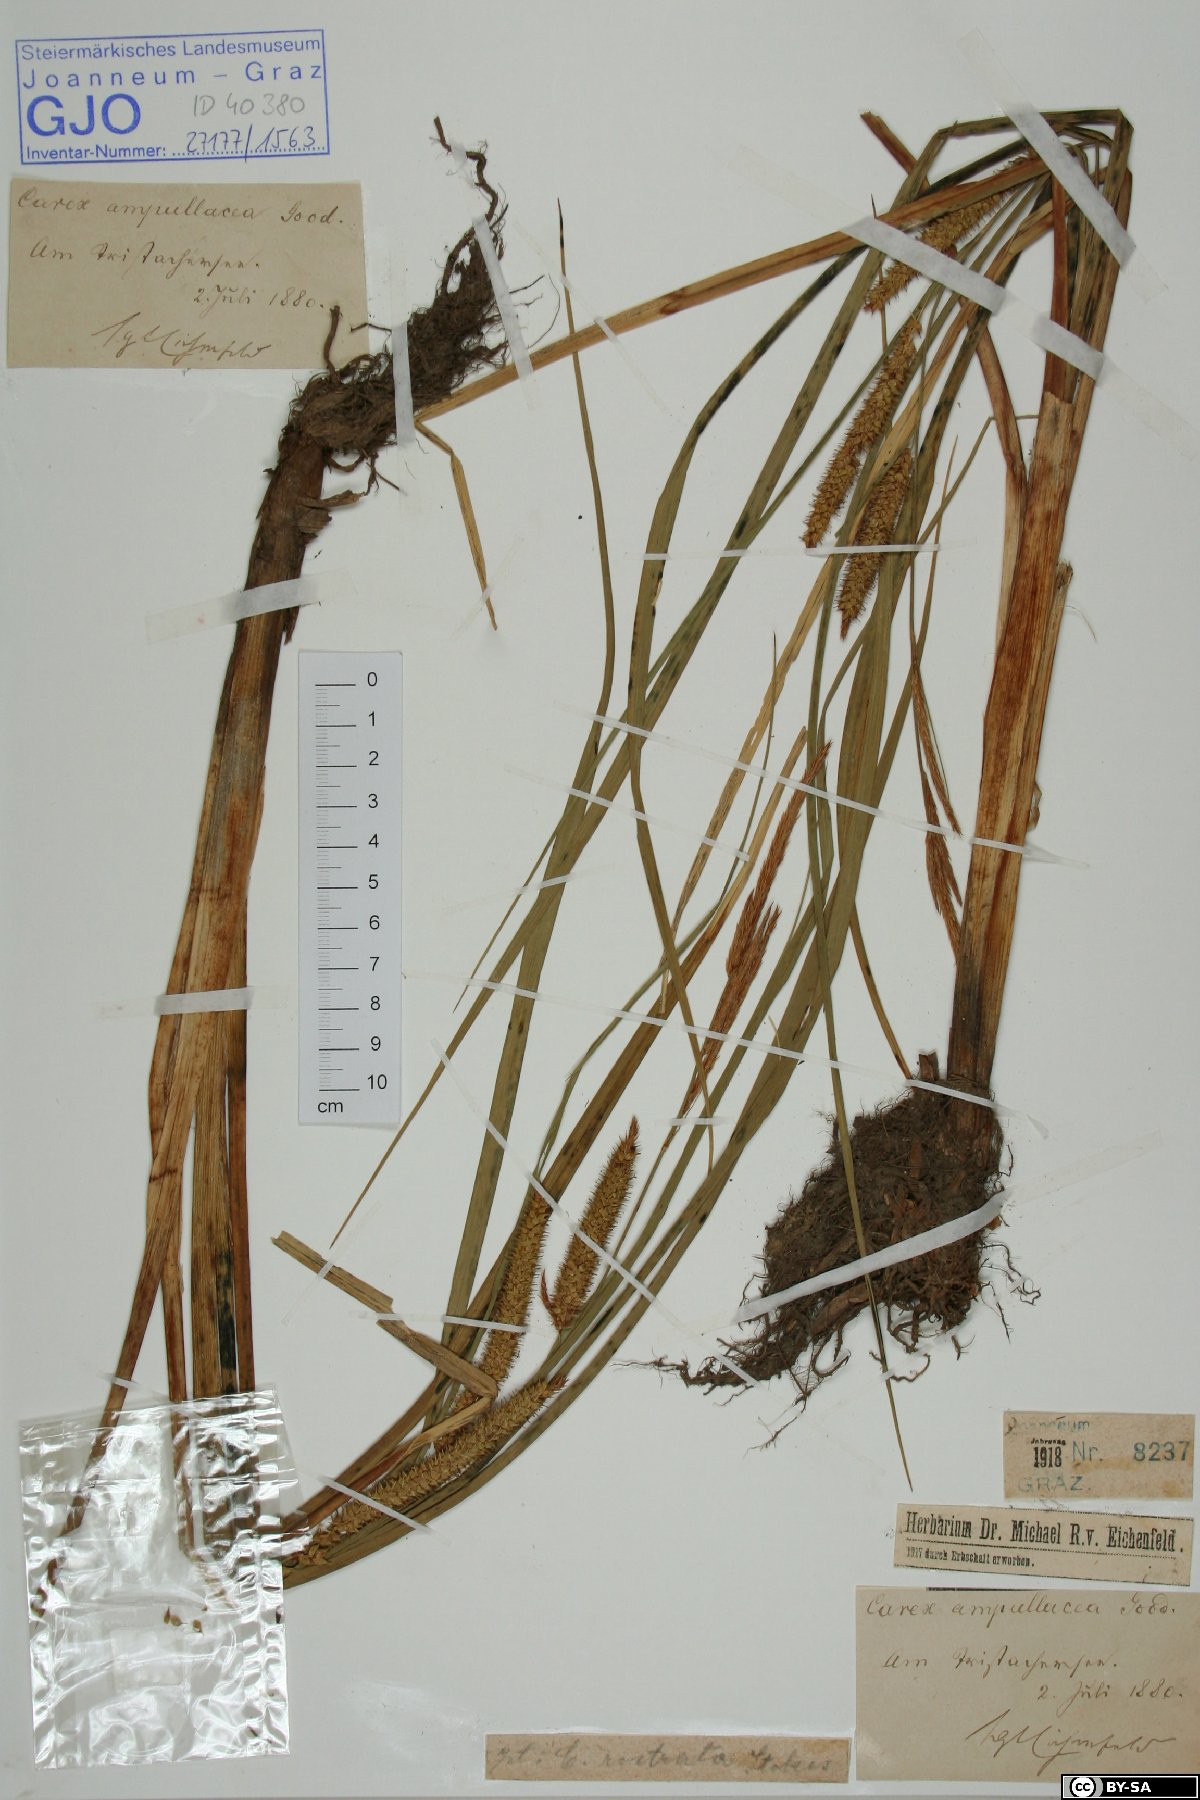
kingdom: Plantae
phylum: Tracheophyta
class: Liliopsida
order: Poales
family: Cyperaceae
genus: Carex
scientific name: Carex rostrata
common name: Bottle sedge
